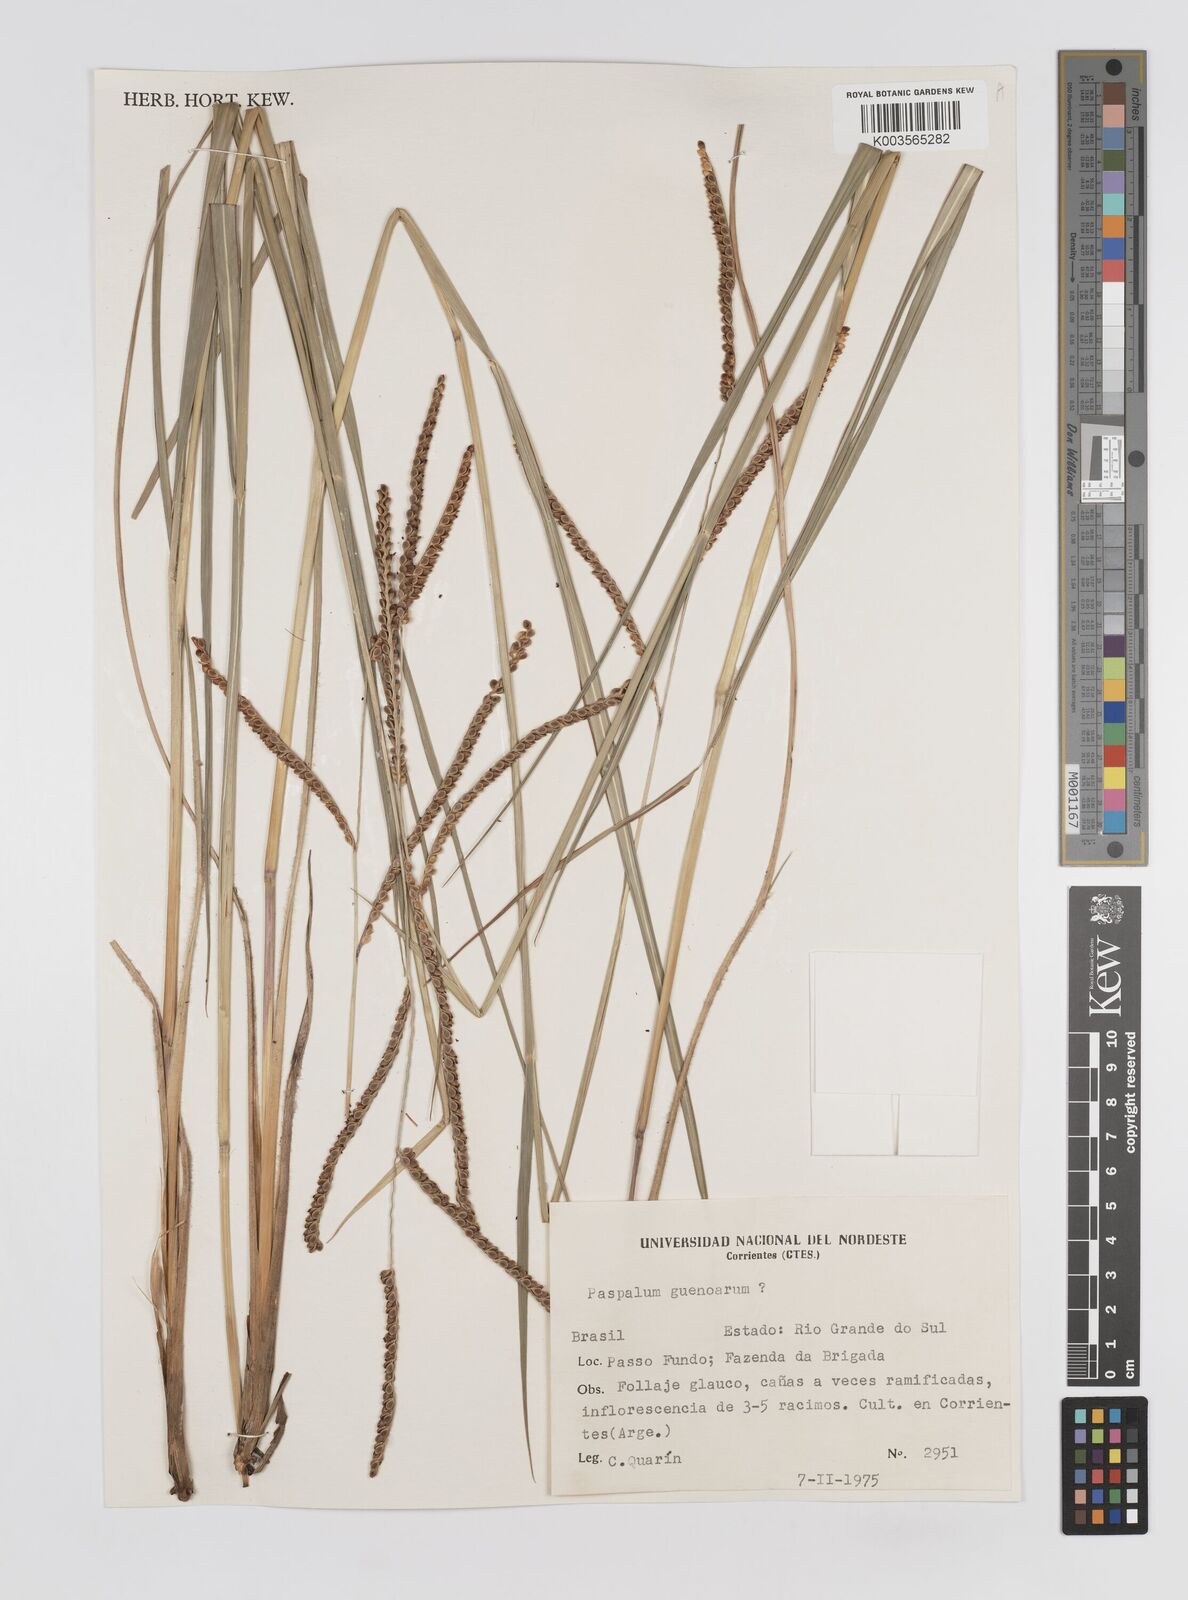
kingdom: Plantae
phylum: Tracheophyta
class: Liliopsida
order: Poales
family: Poaceae
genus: Paspalum
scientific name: Paspalum guenoarum
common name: Wintergreen paspalum
